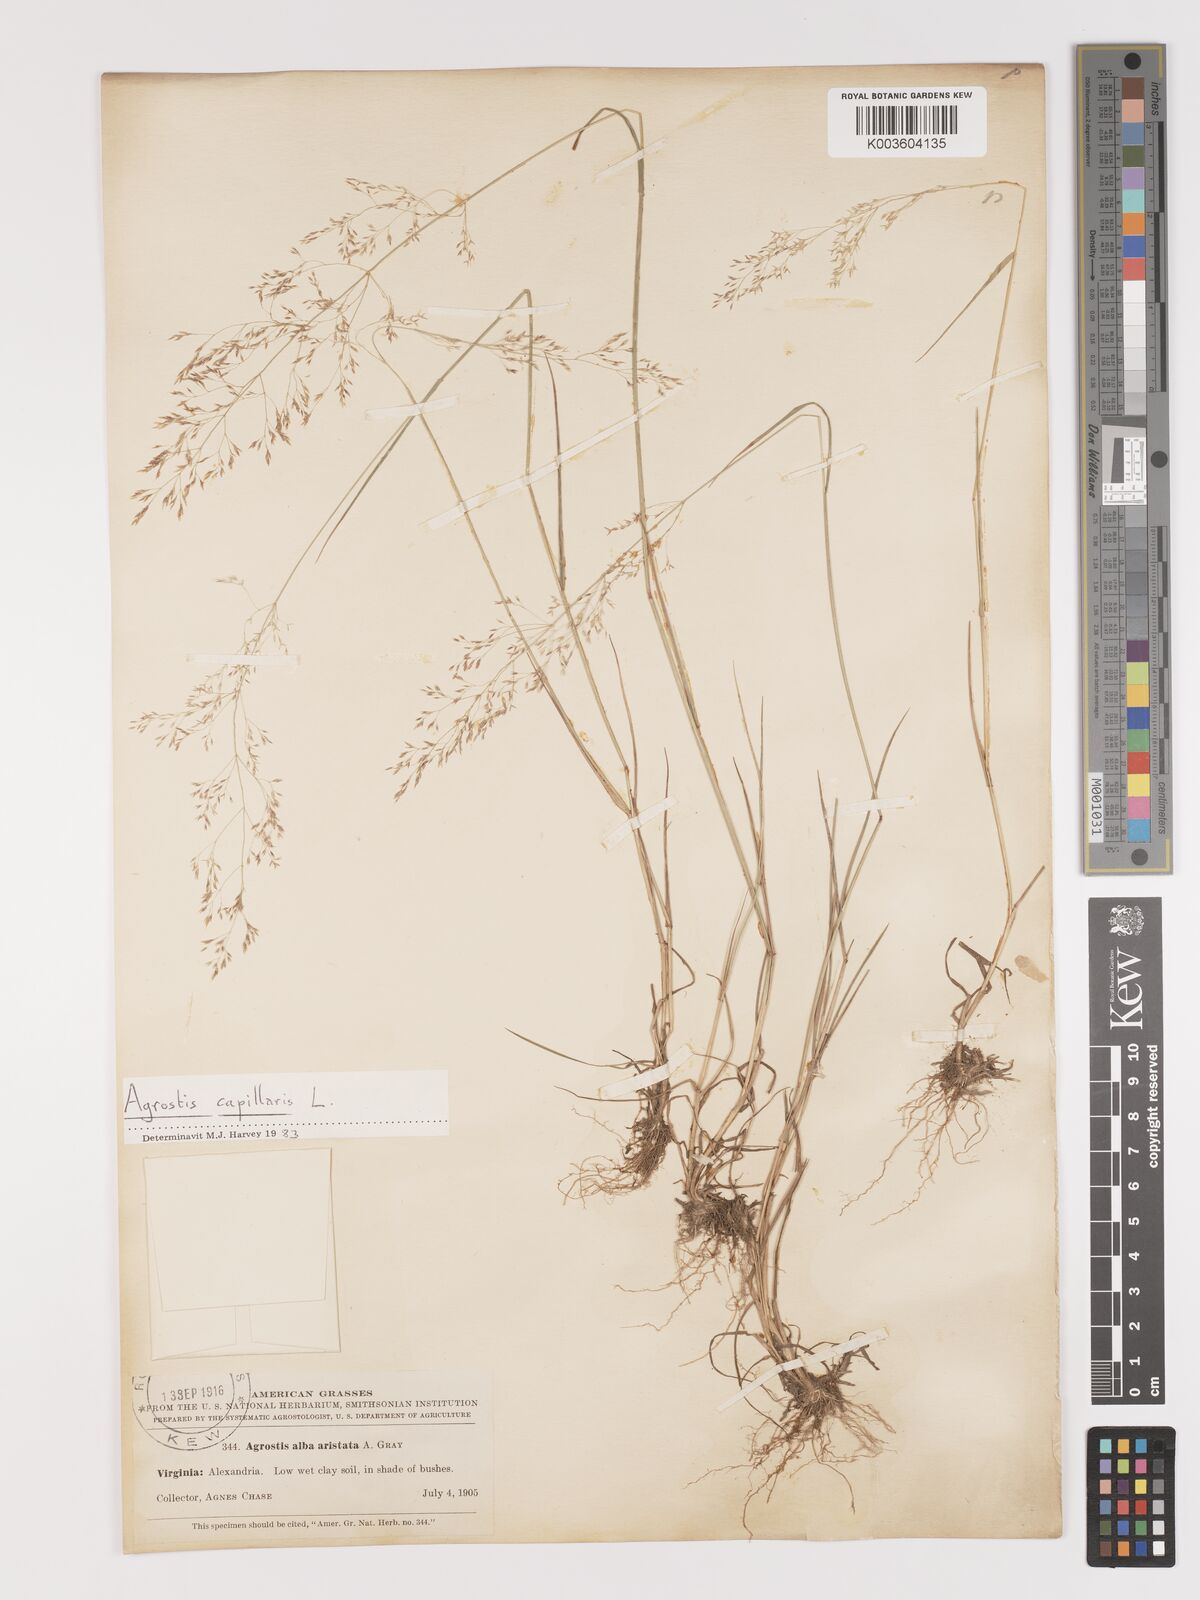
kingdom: Plantae
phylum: Tracheophyta
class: Liliopsida
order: Poales
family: Poaceae
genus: Agrostis
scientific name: Agrostis capillaris
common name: Colonial bentgrass
